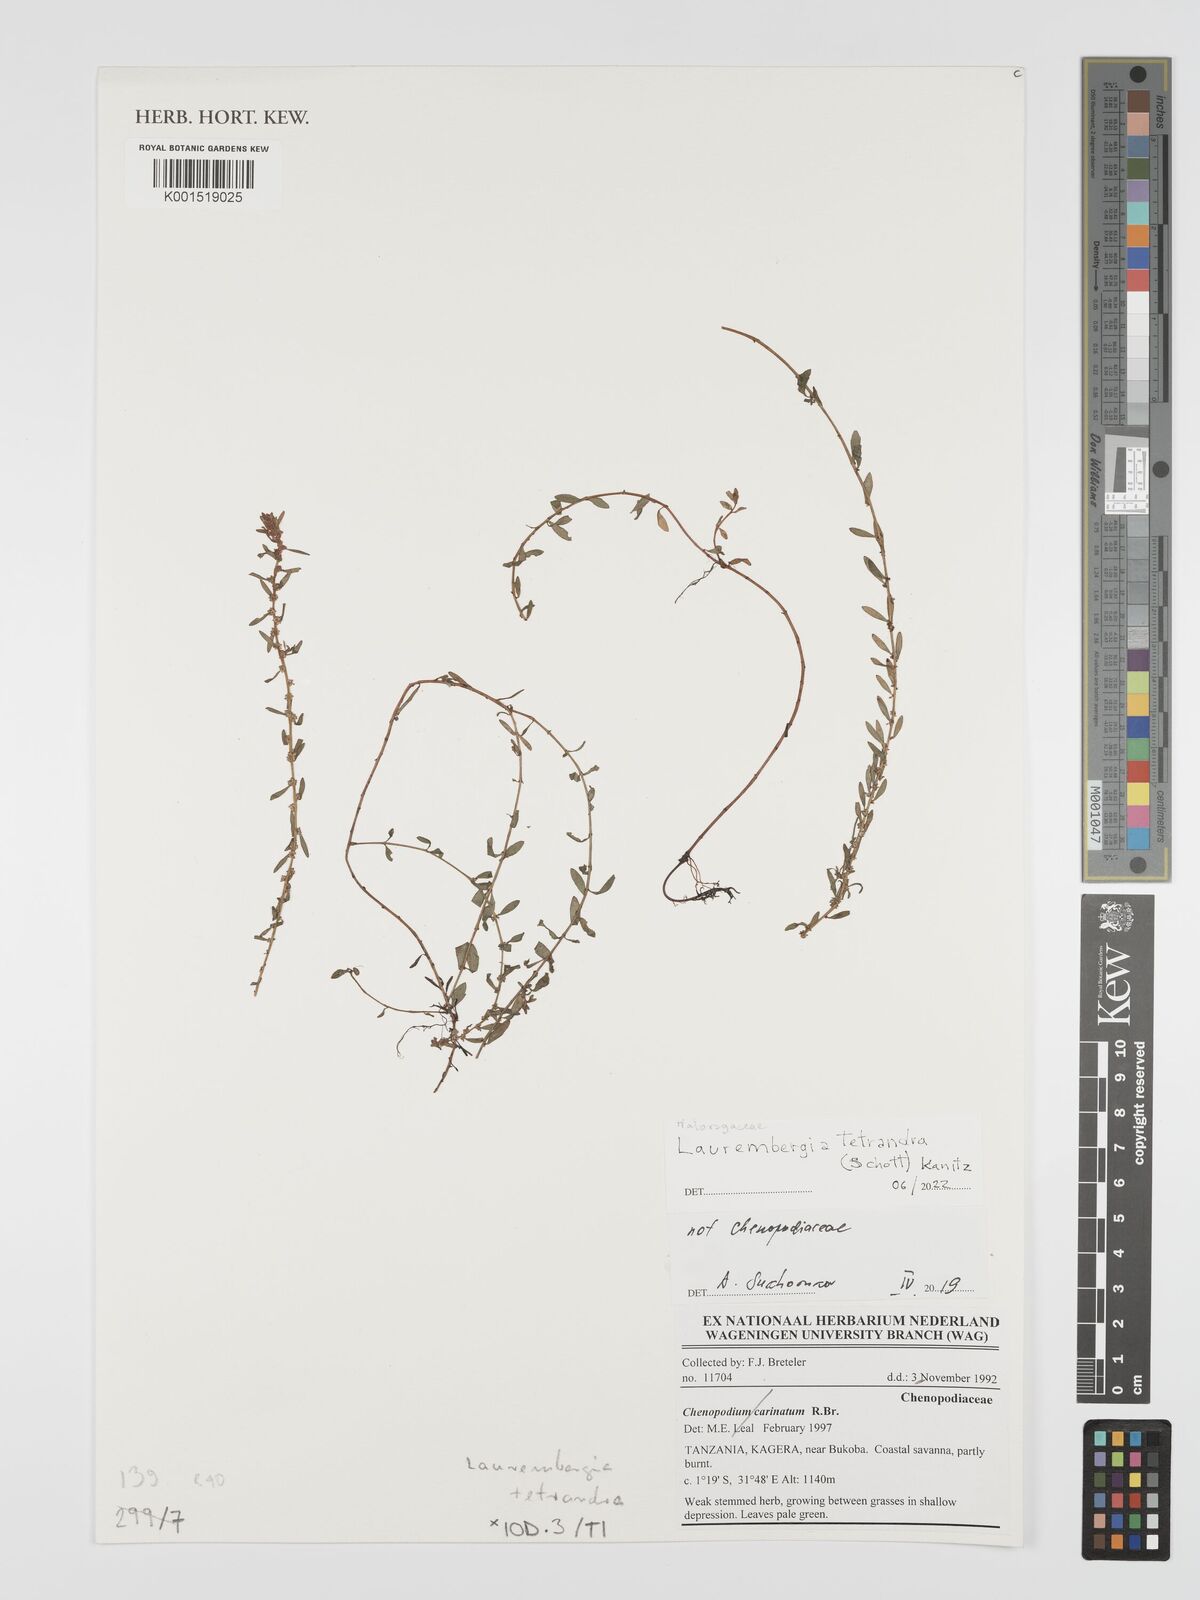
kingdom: Plantae
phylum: Tracheophyta
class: Magnoliopsida
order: Saxifragales
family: Haloragaceae
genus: Laurembergia
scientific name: Laurembergia tetrandra
